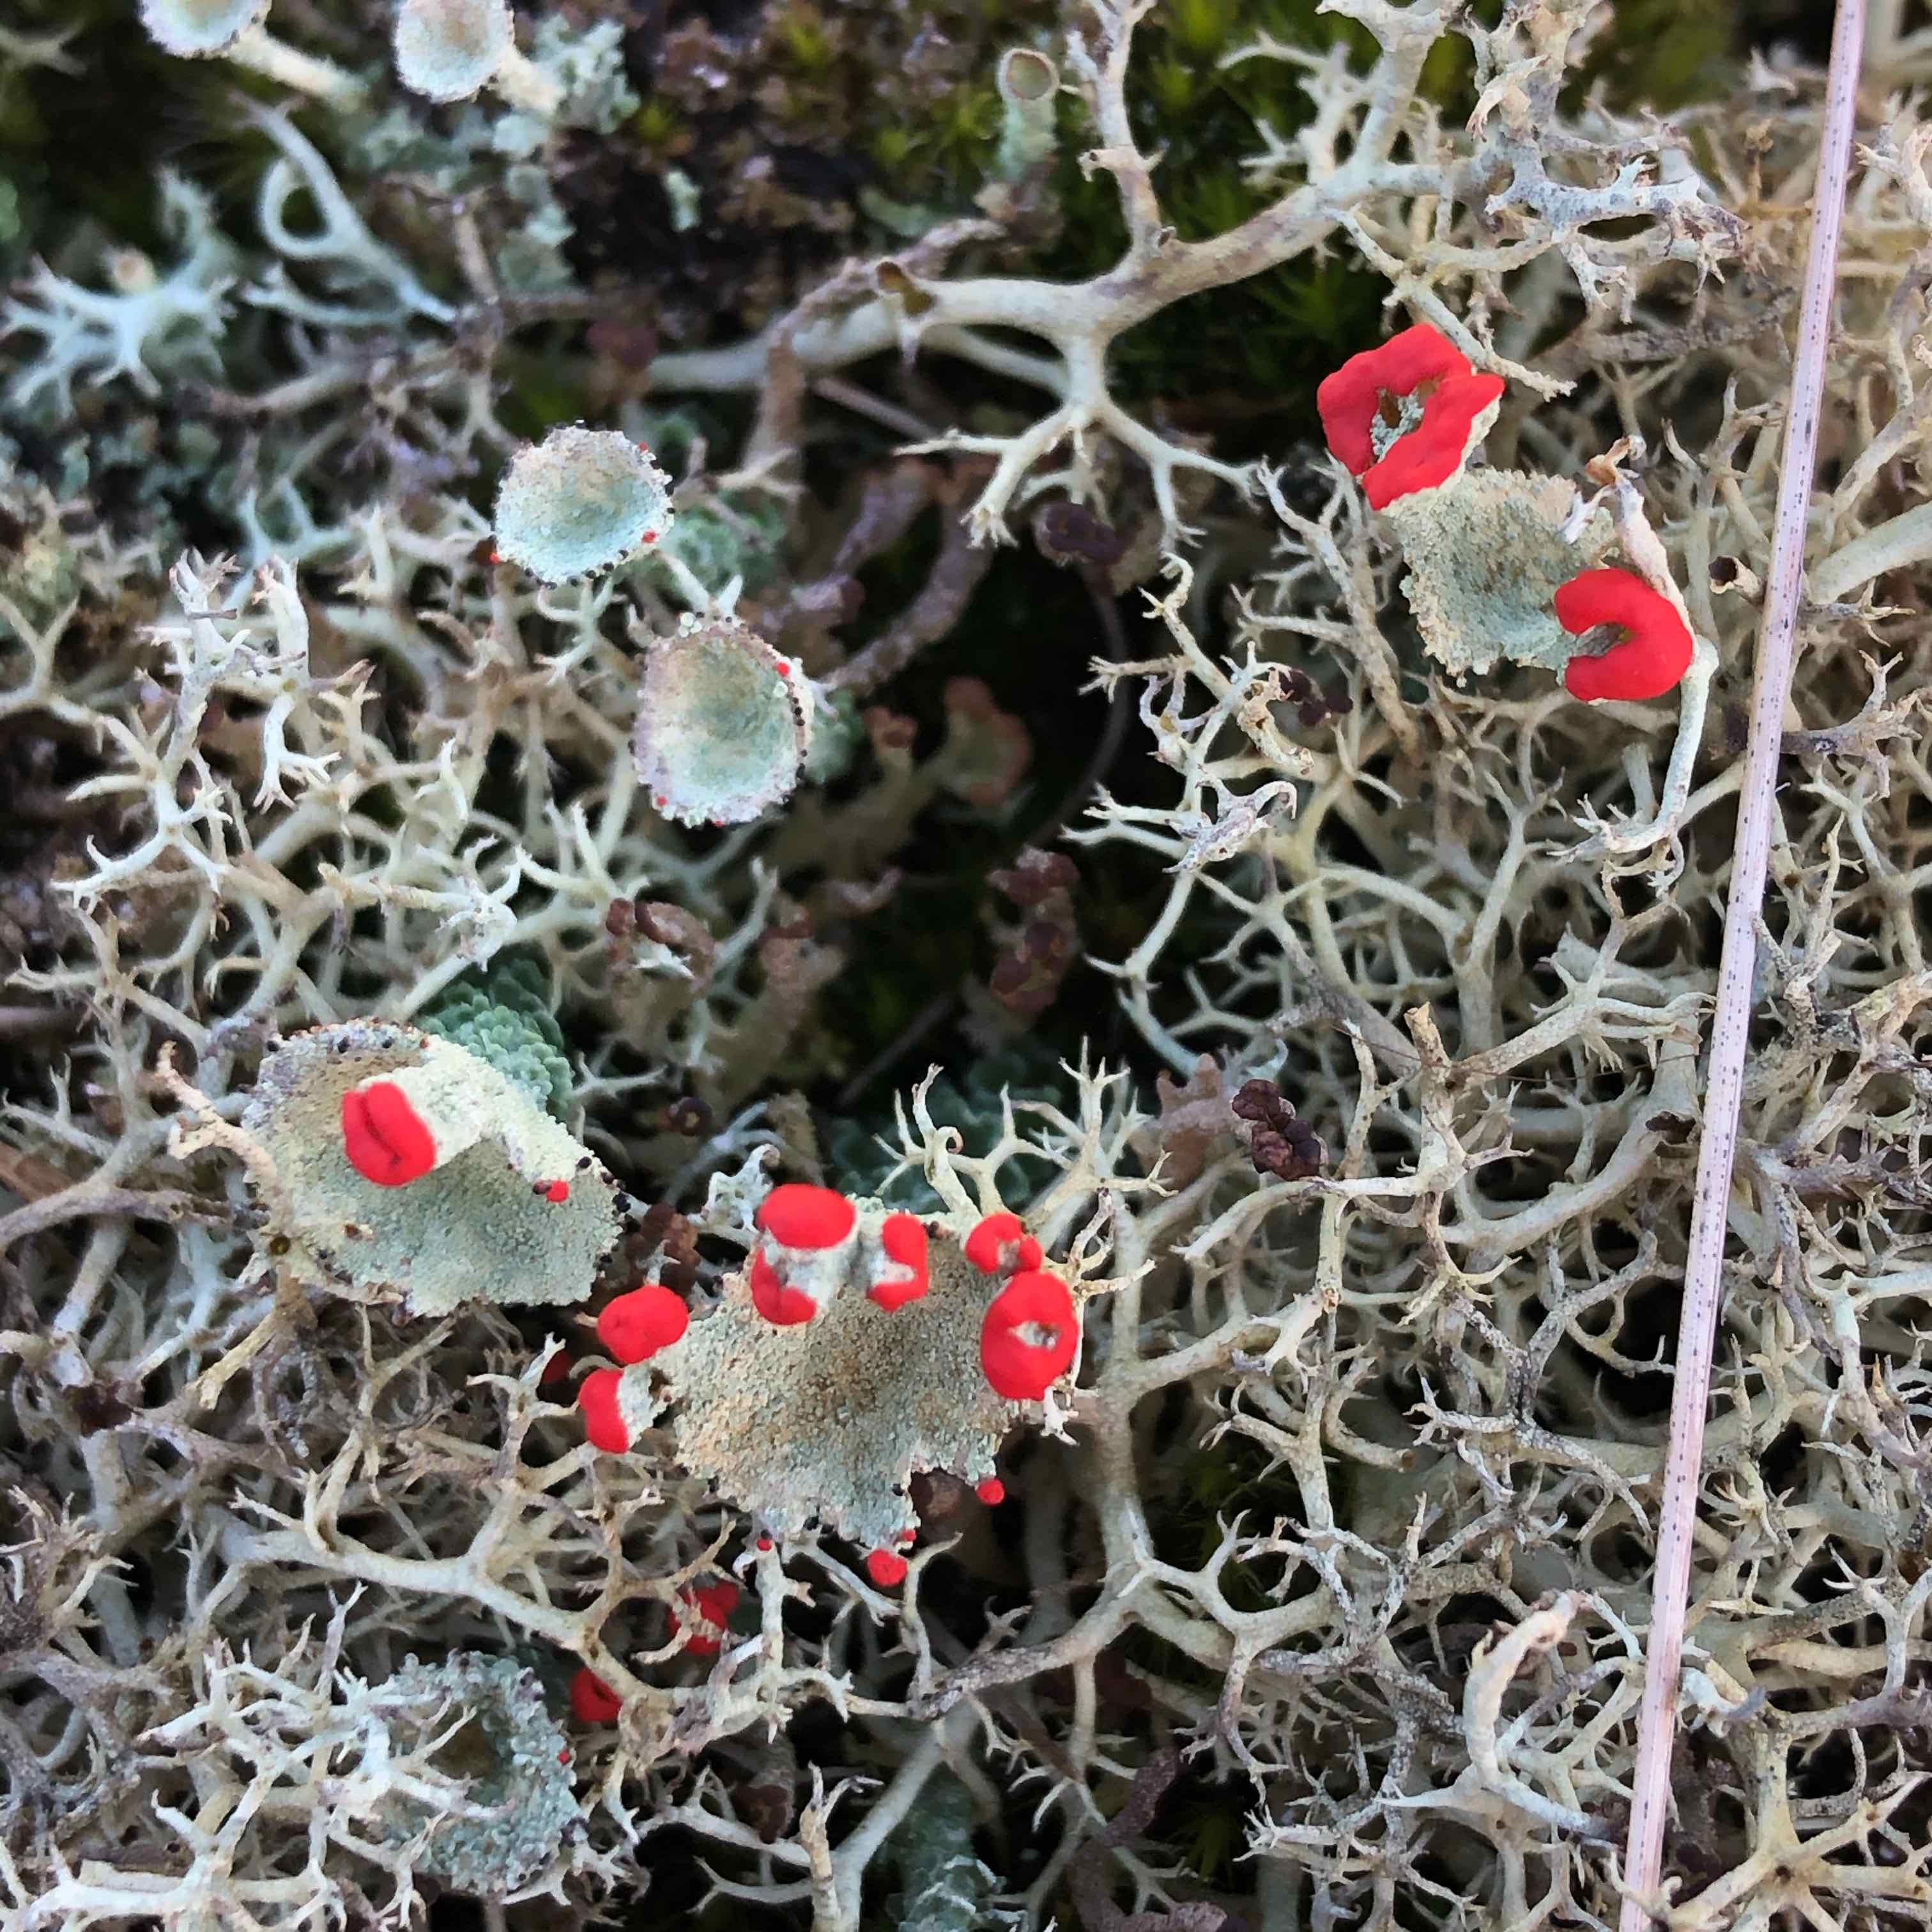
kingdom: Fungi
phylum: Ascomycota
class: Lecanoromycetes
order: Lecanorales
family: Cladoniaceae
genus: Cladonia
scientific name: Cladonia diversa
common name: rød bægerlav
